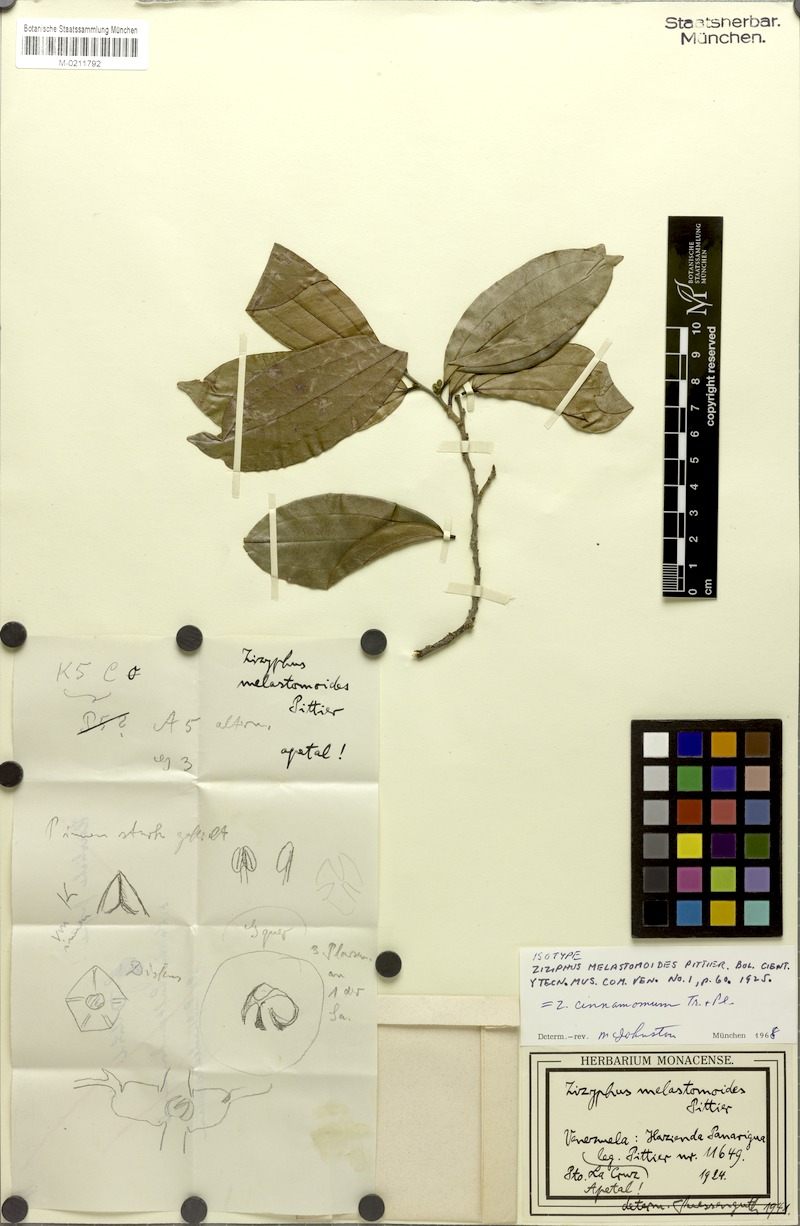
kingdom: Plantae
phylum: Tracheophyta
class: Magnoliopsida
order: Rosales
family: Rhamnaceae
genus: Sarcomphalus
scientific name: Sarcomphalus melastomoides
